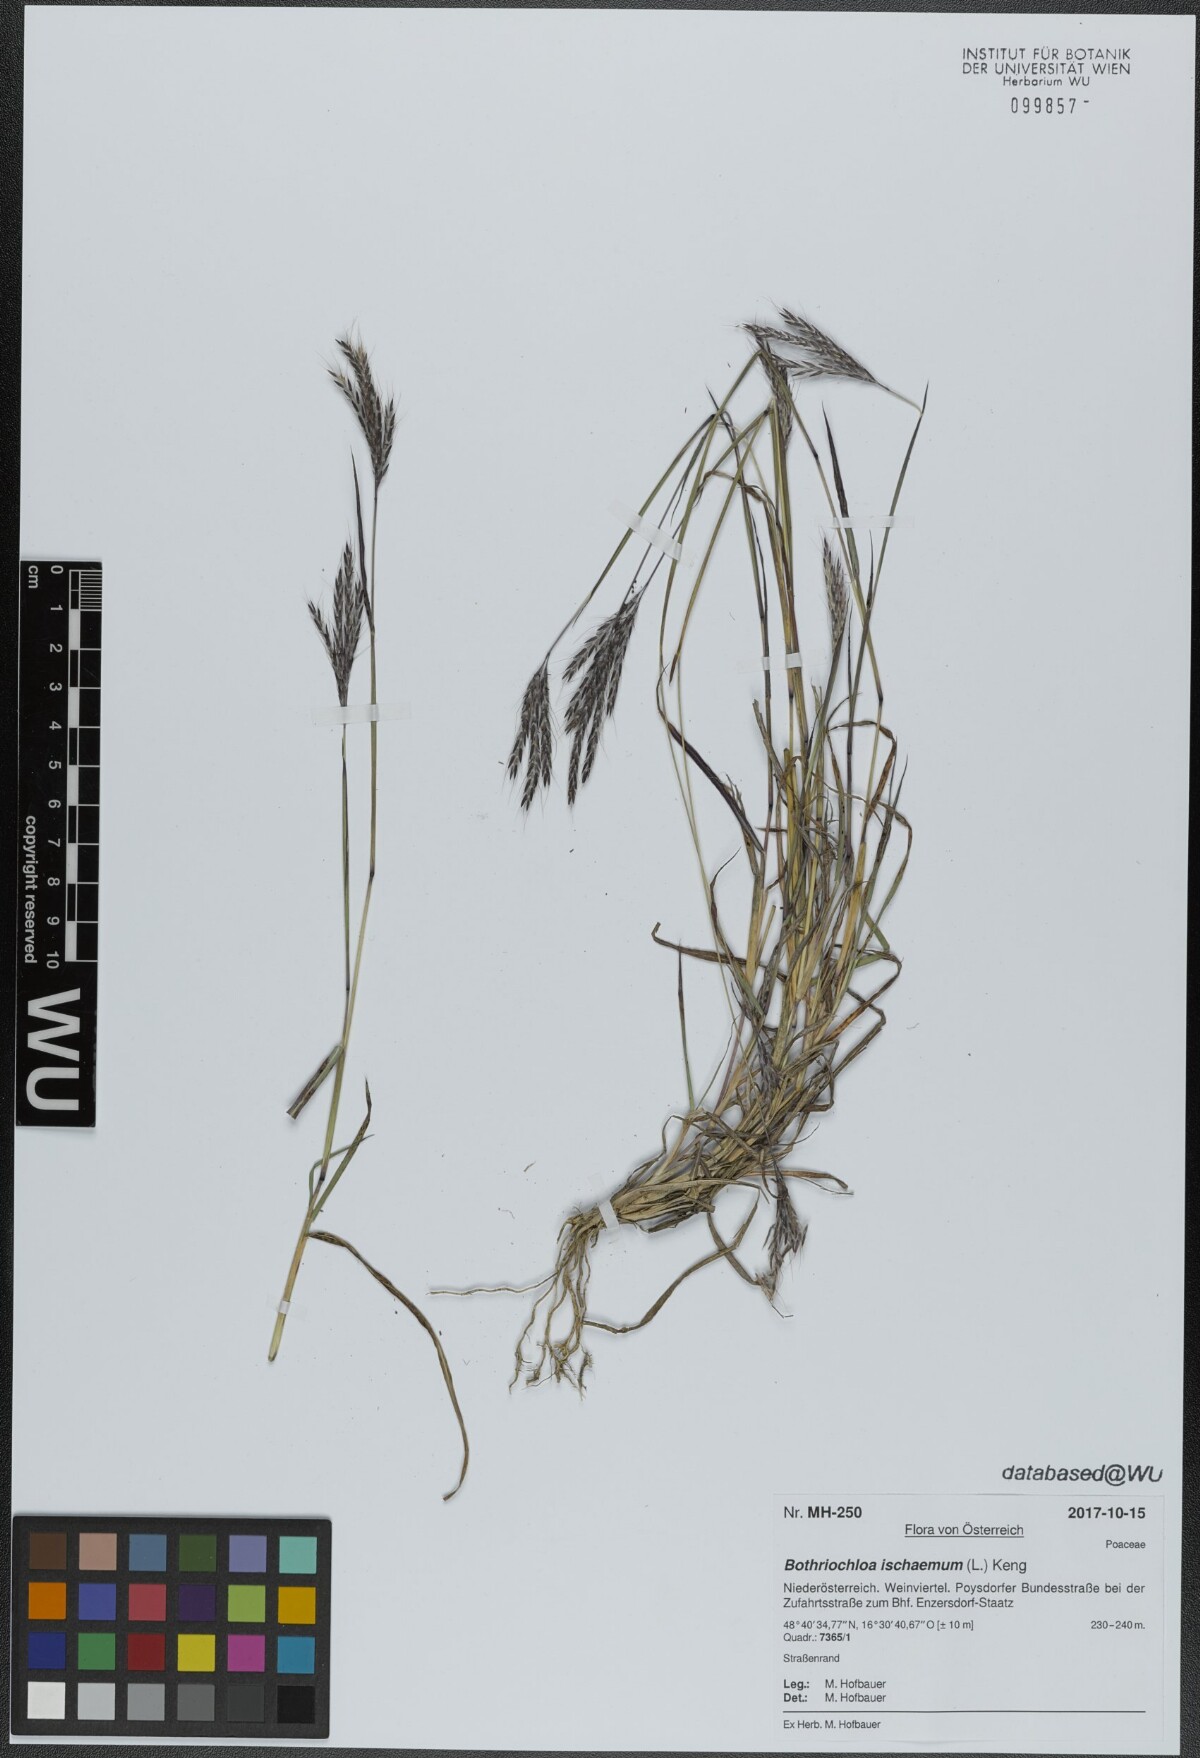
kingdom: Plantae
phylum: Tracheophyta
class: Liliopsida
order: Poales
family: Poaceae
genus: Bothriochloa
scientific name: Bothriochloa ischaemum
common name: Yellow bluestem
